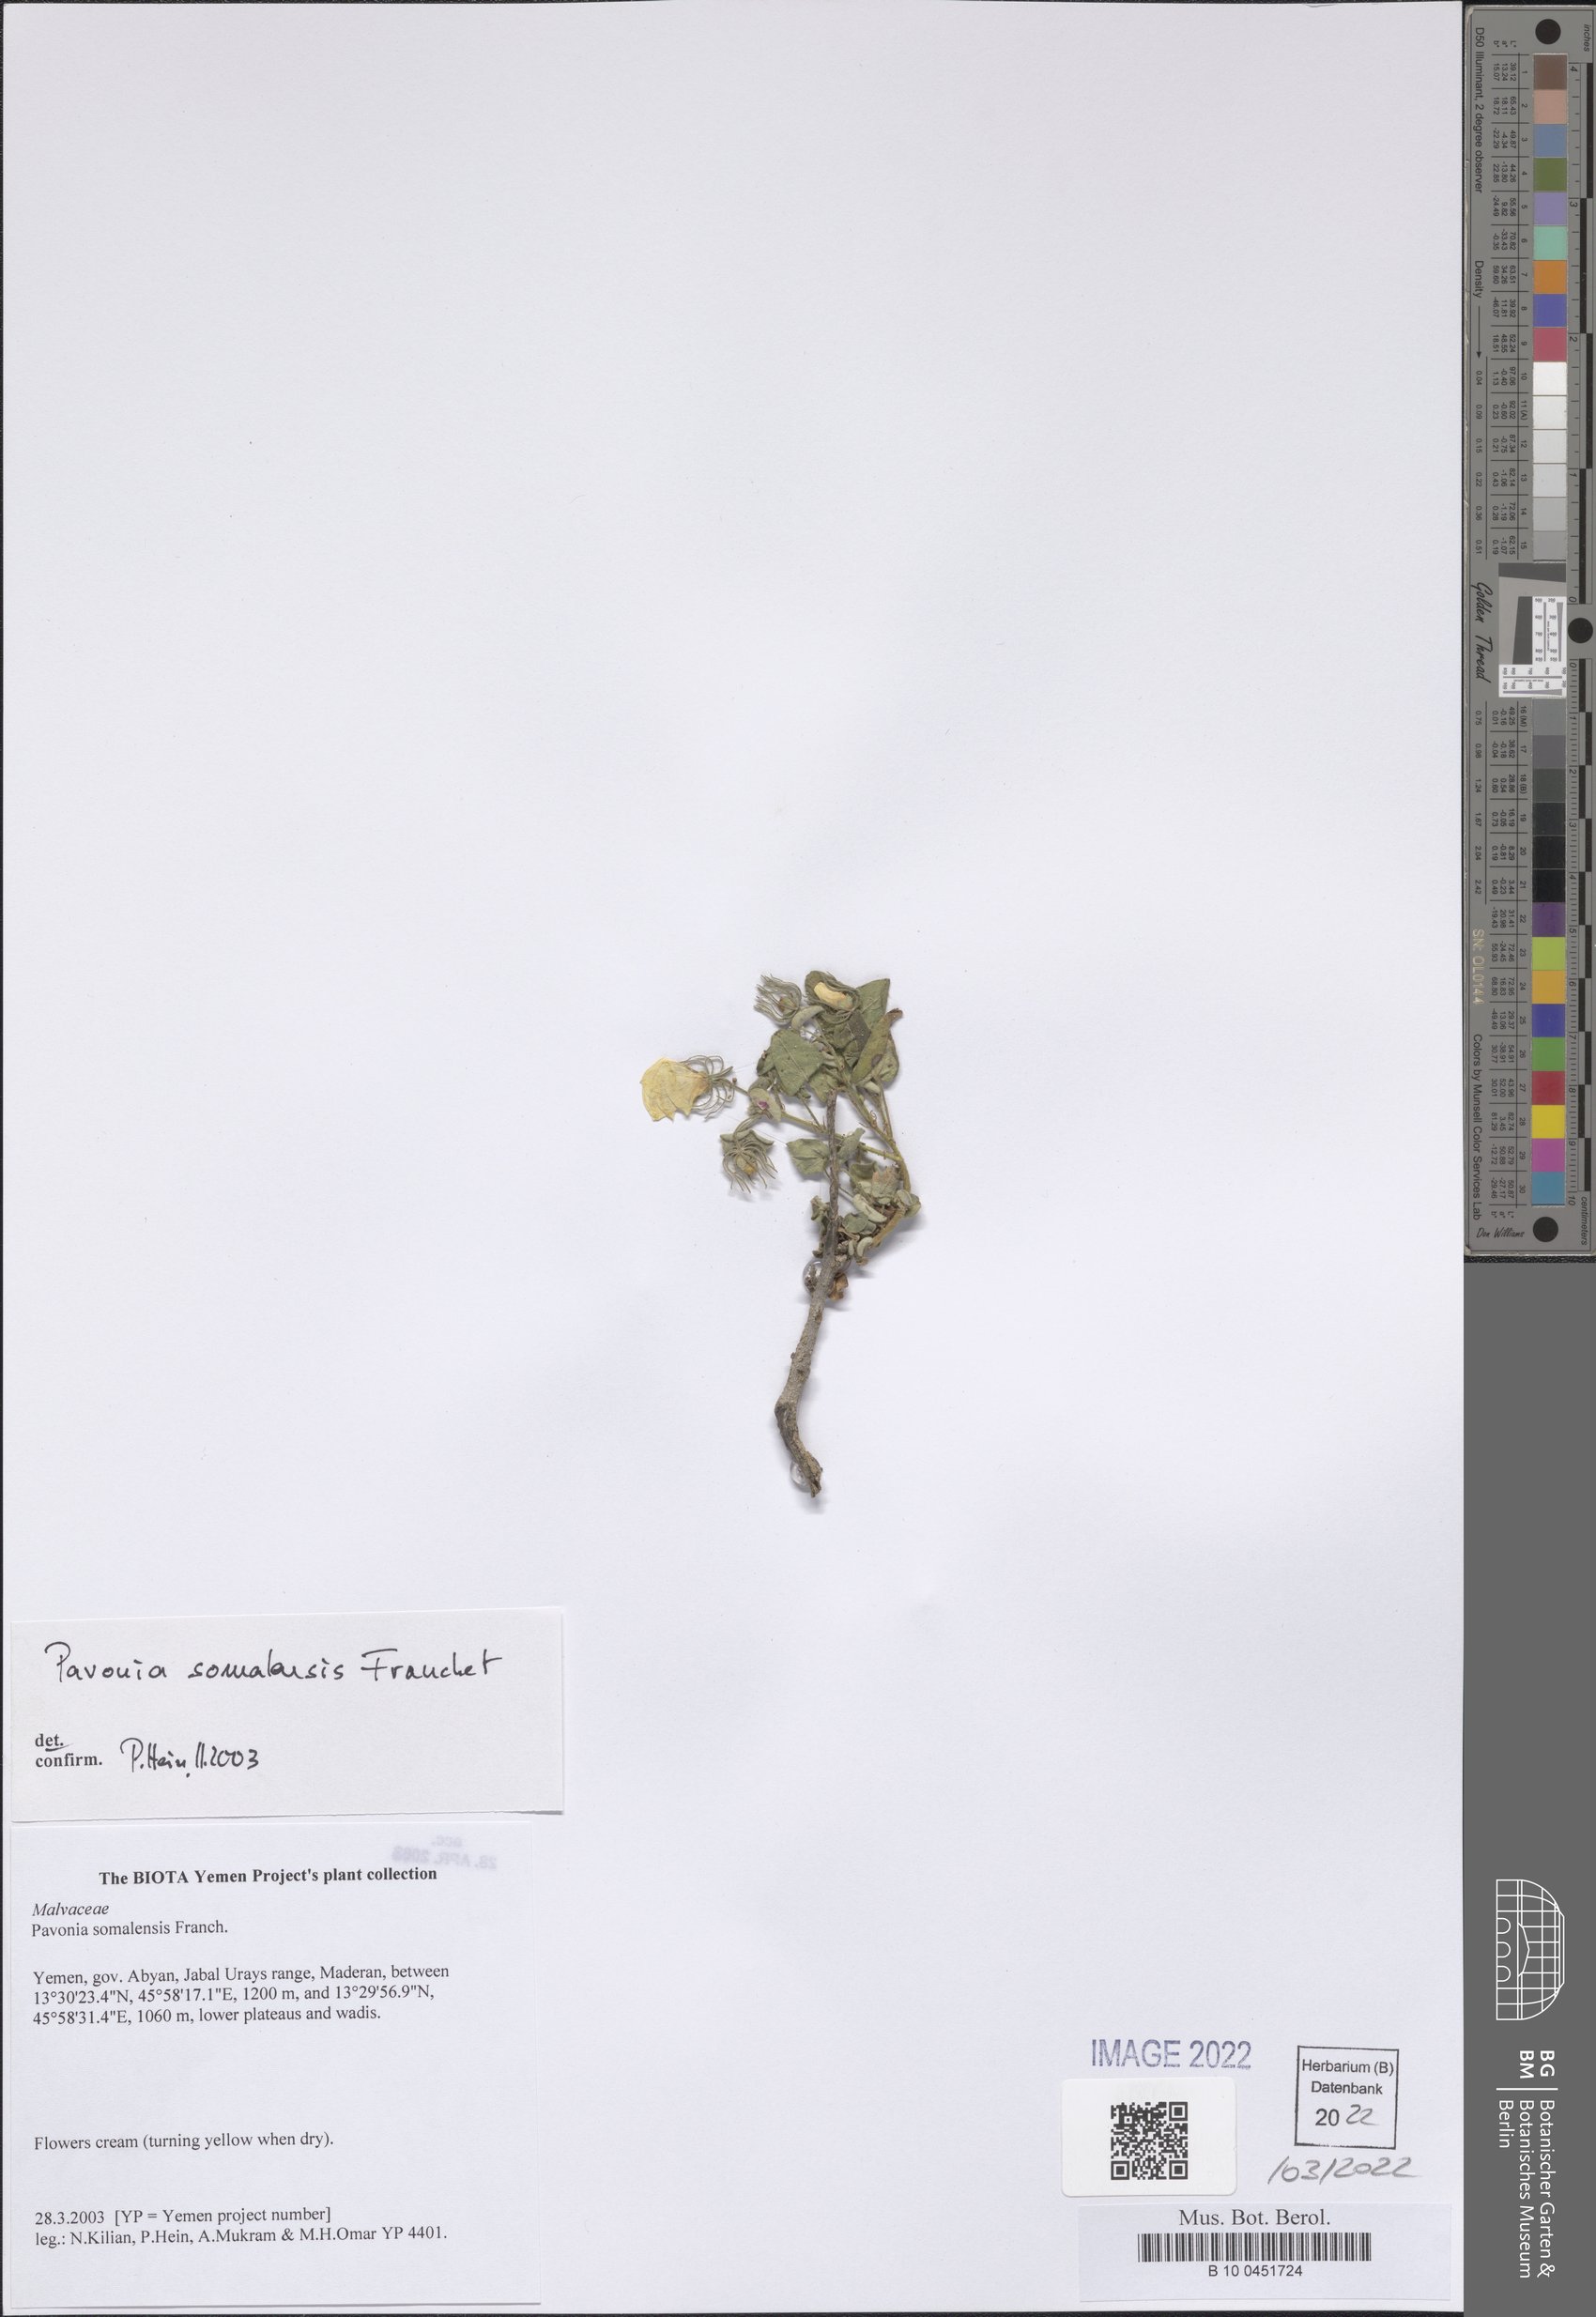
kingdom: Plantae
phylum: Tracheophyta
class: Magnoliopsida
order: Malvales
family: Malvaceae
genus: Pavonia
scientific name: Pavonia somalensis
